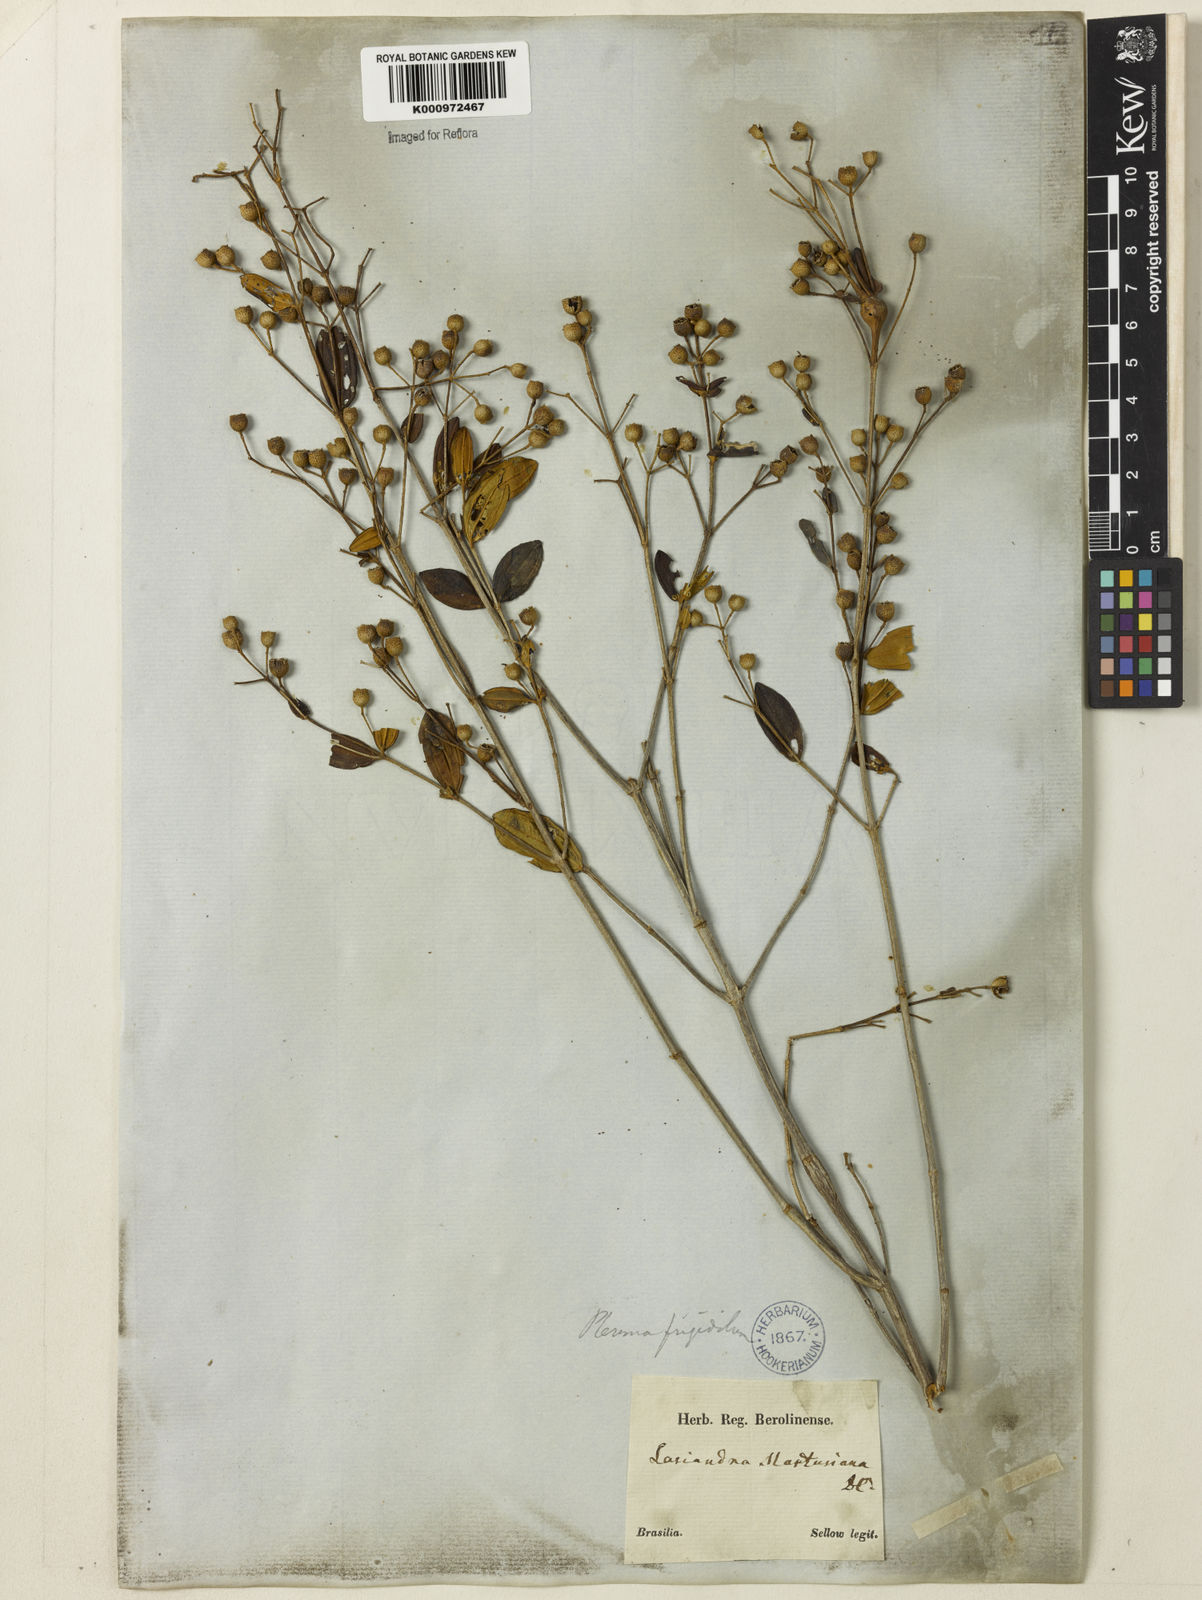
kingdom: Plantae
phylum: Tracheophyta
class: Magnoliopsida
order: Myrtales
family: Melastomataceae
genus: Pleroma
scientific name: Pleroma martiusianum
